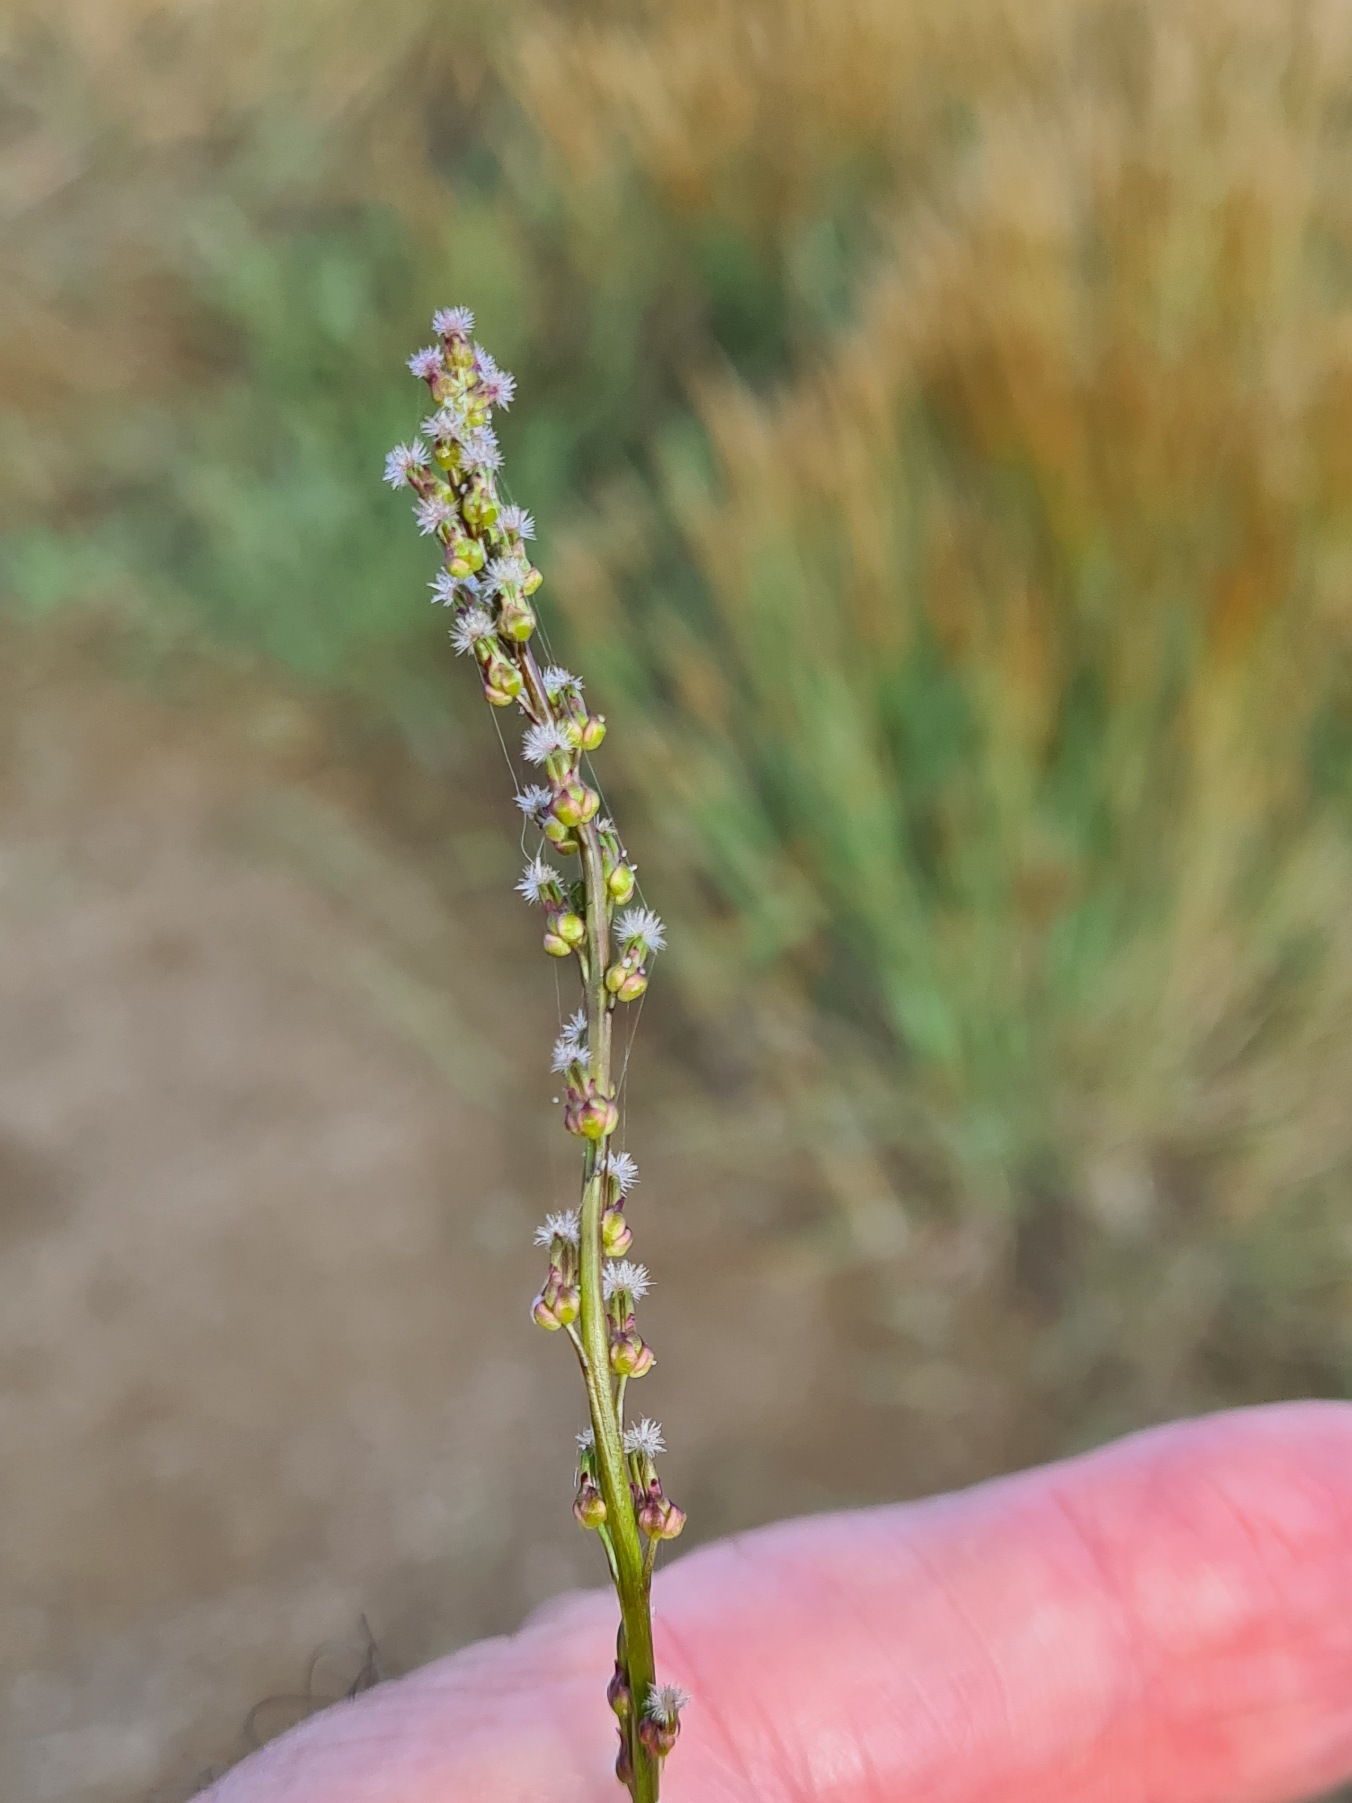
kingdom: Plantae
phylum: Tracheophyta
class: Liliopsida
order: Alismatales
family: Juncaginaceae
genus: Triglochin
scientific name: Triglochin palustris
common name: Kær-trehage
